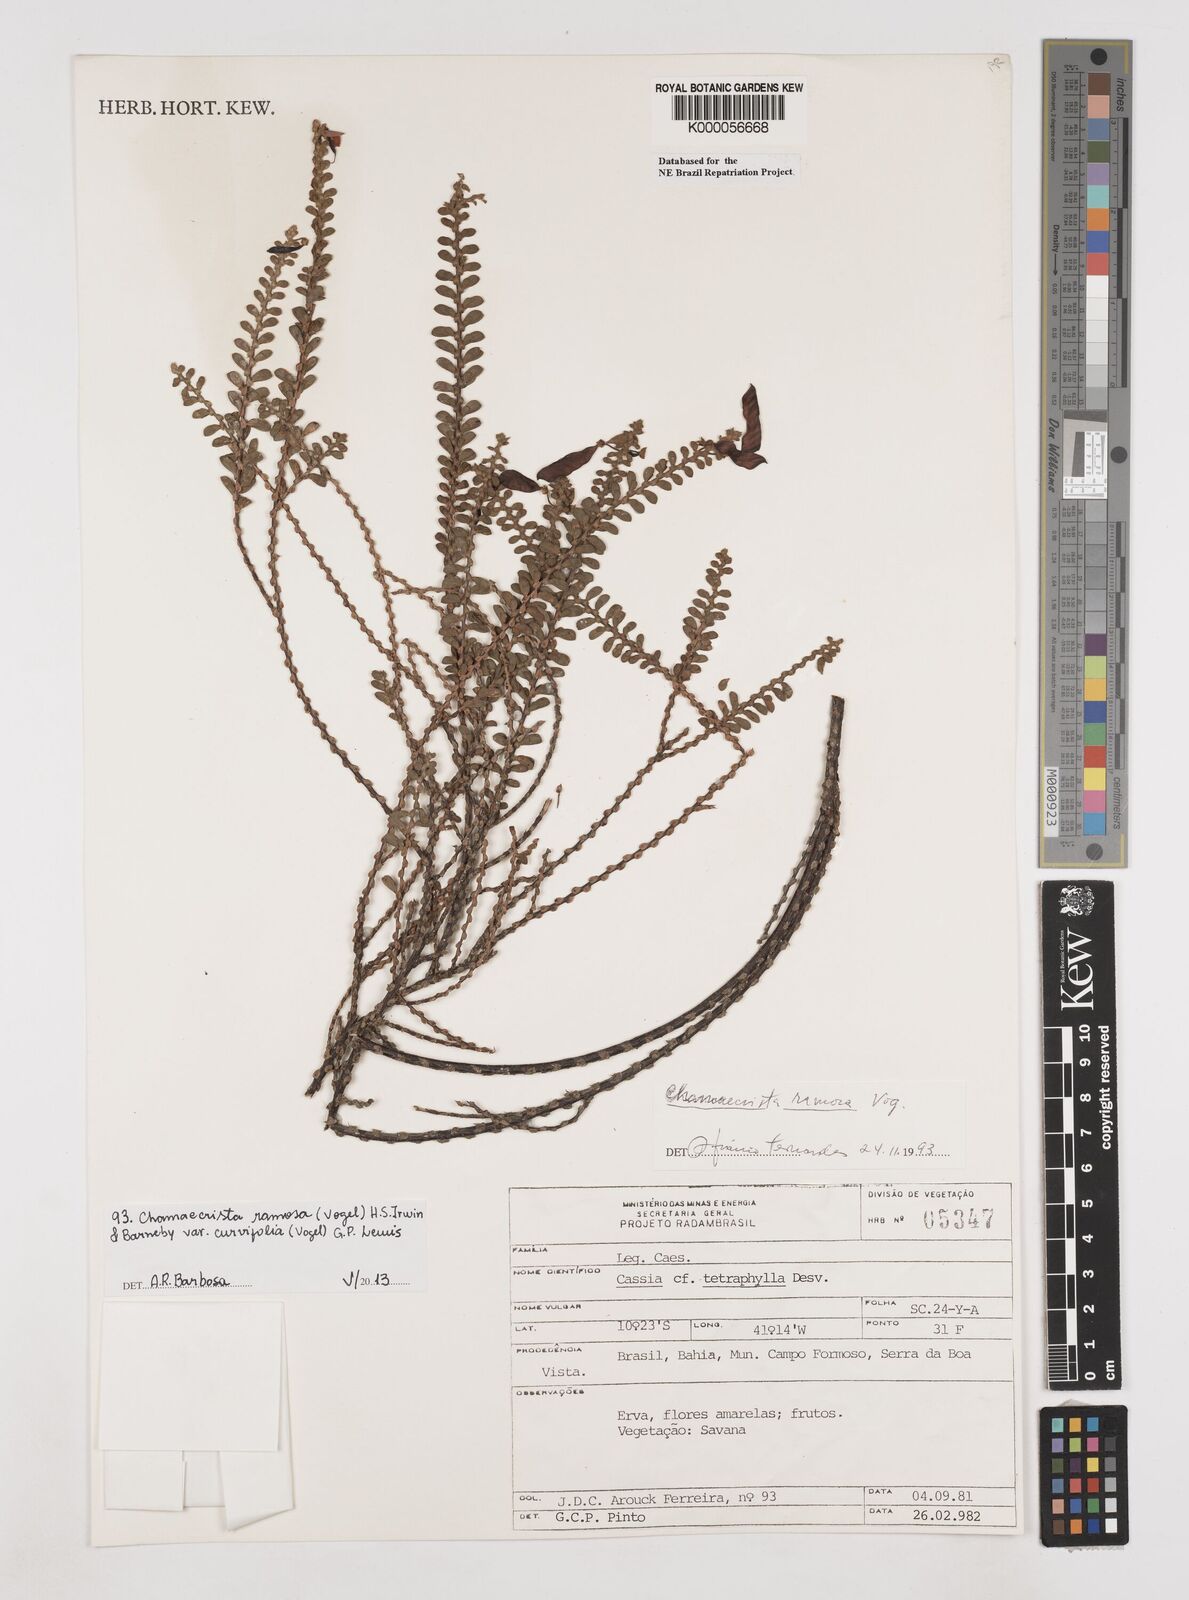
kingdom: Plantae
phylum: Tracheophyta
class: Magnoliopsida
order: Fabales
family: Fabaceae
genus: Chamaecrista
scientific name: Chamaecrista ramosa
